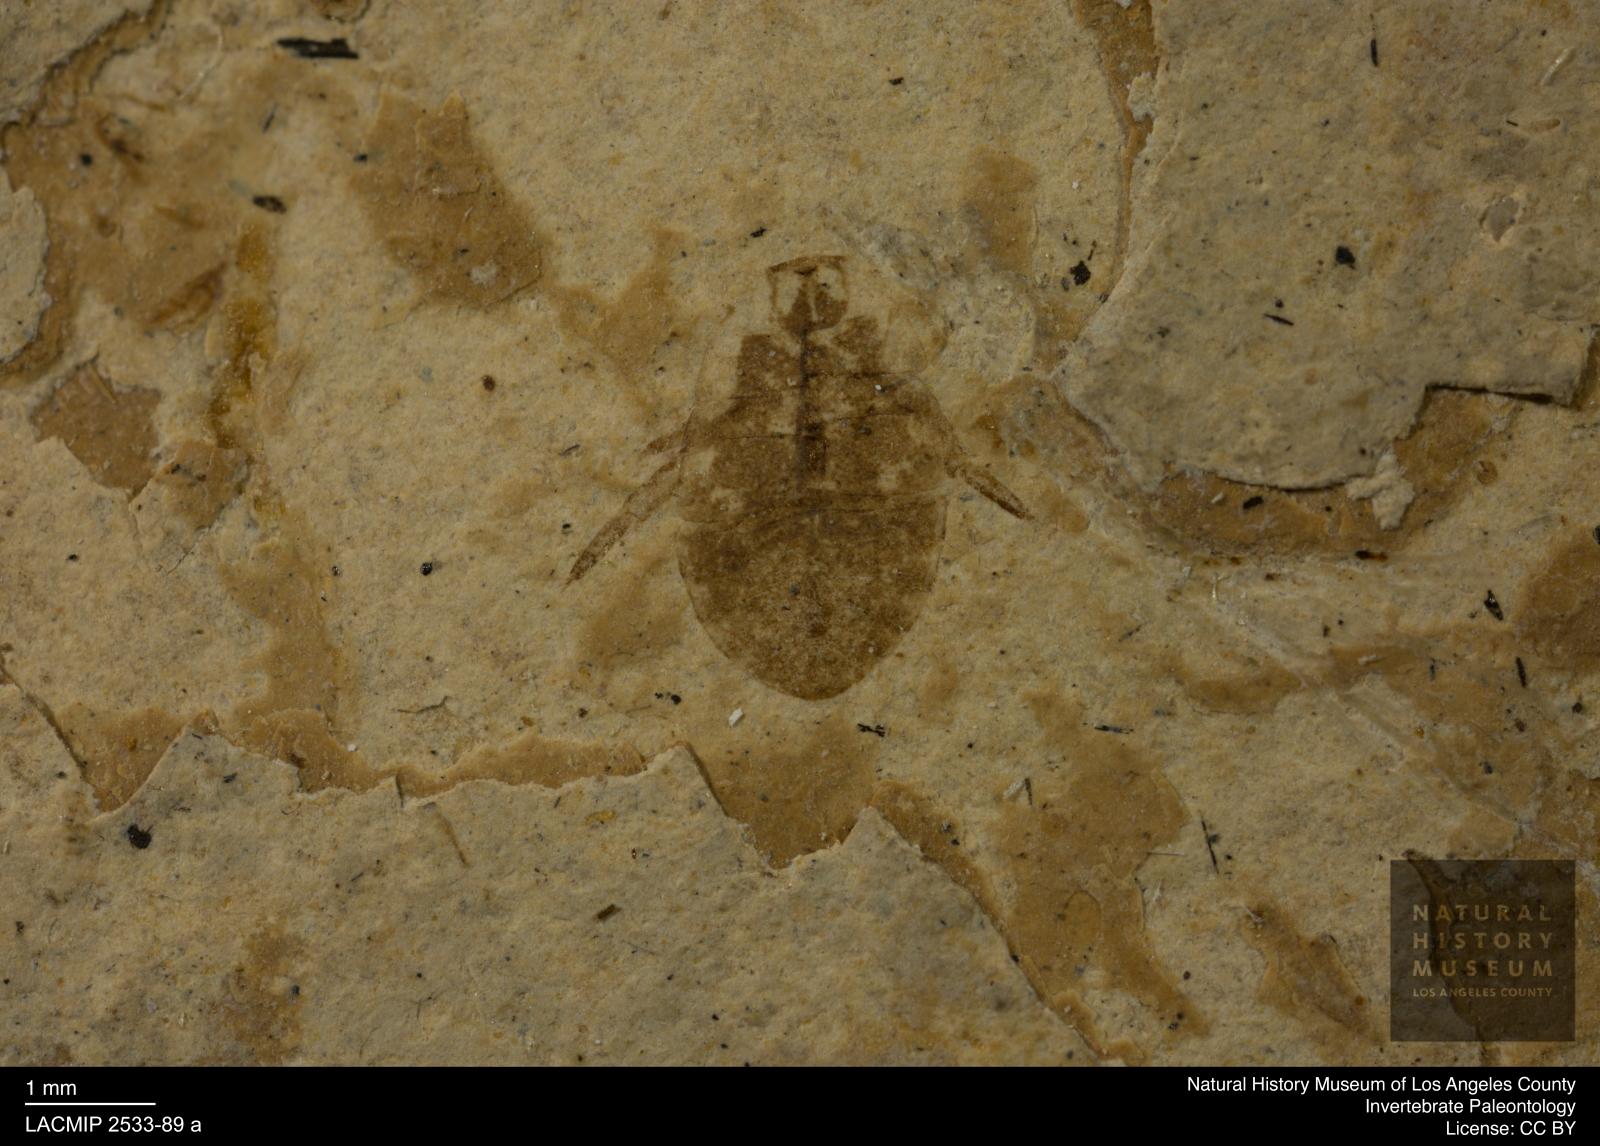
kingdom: Animalia
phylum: Arthropoda
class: Insecta
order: Hemiptera
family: Naucoridae
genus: Naucoris
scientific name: Naucoris rottensis
